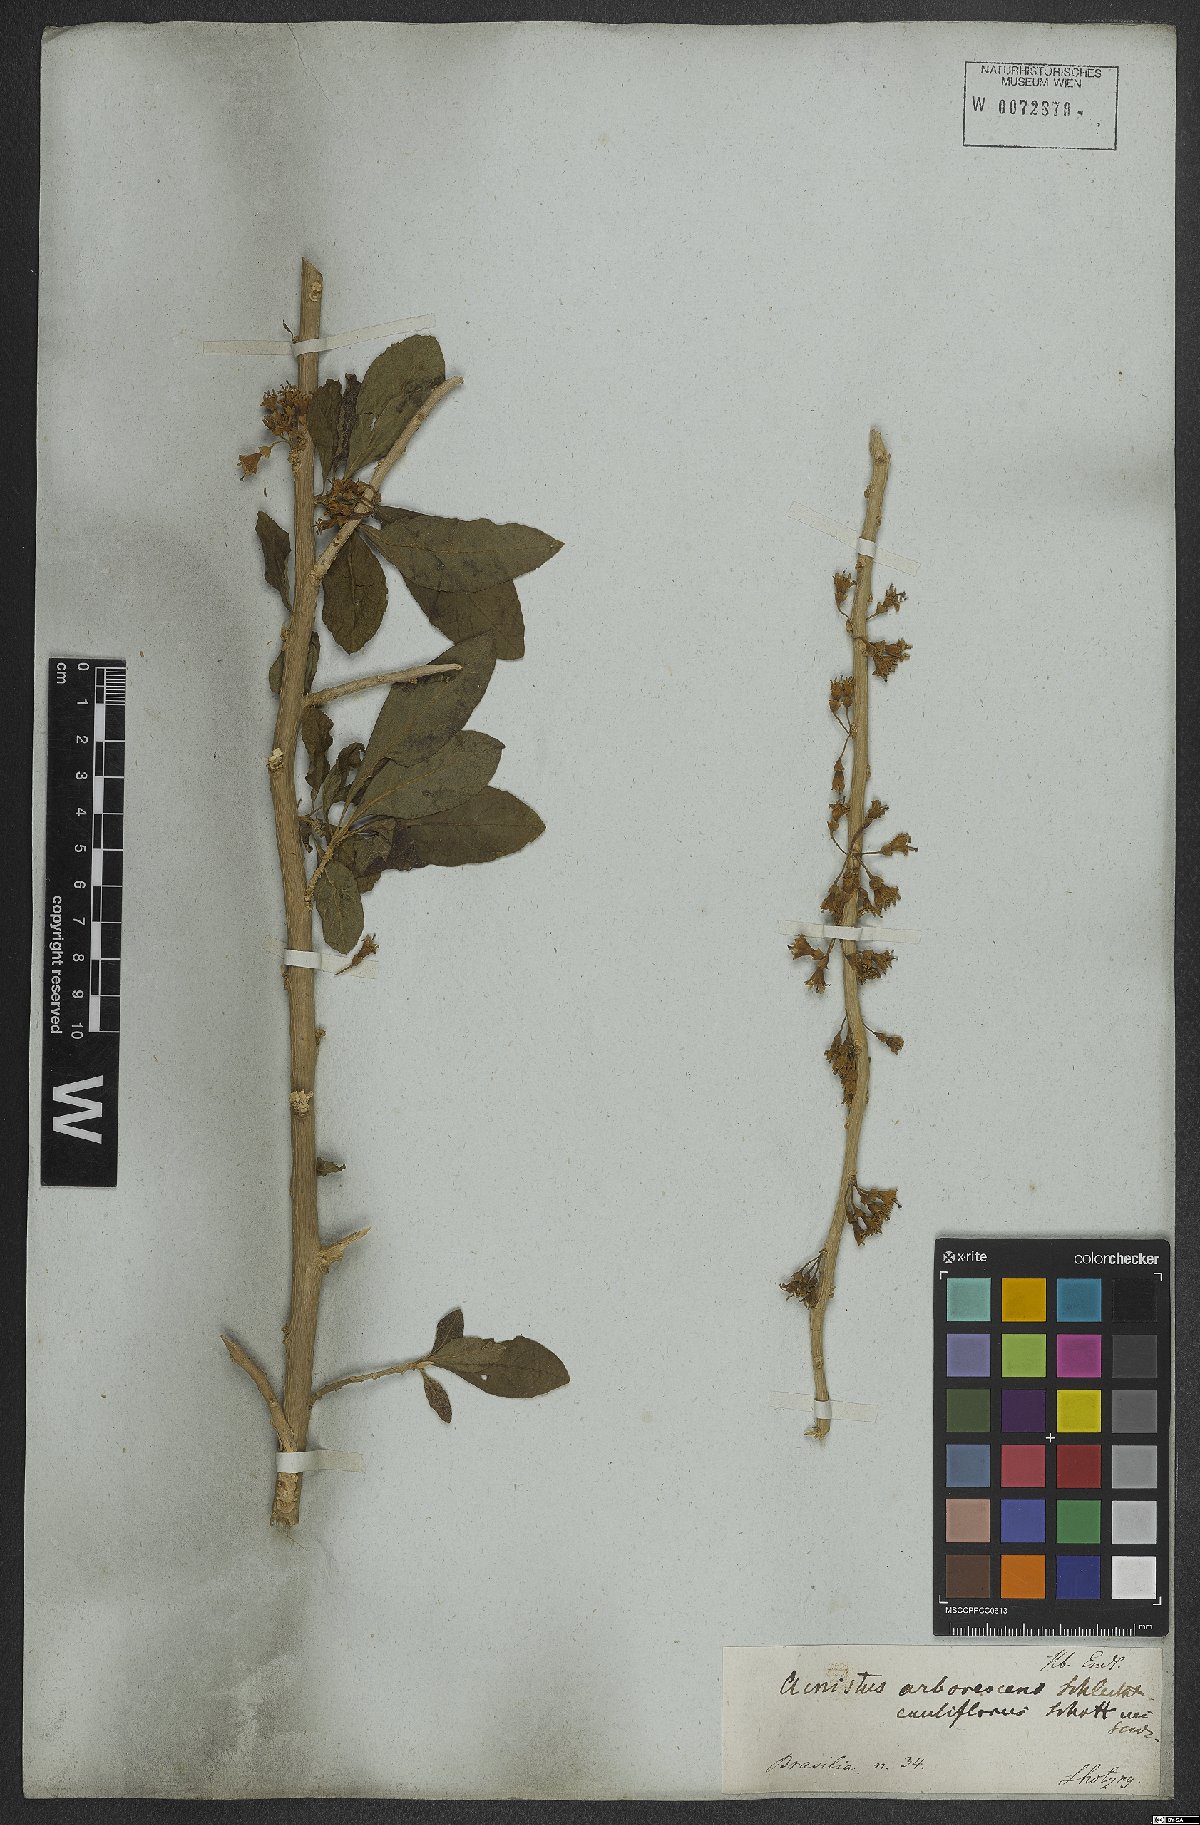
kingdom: Plantae
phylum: Tracheophyta
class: Magnoliopsida
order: Solanales
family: Solanaceae
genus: Iochroma
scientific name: Iochroma arborescens
